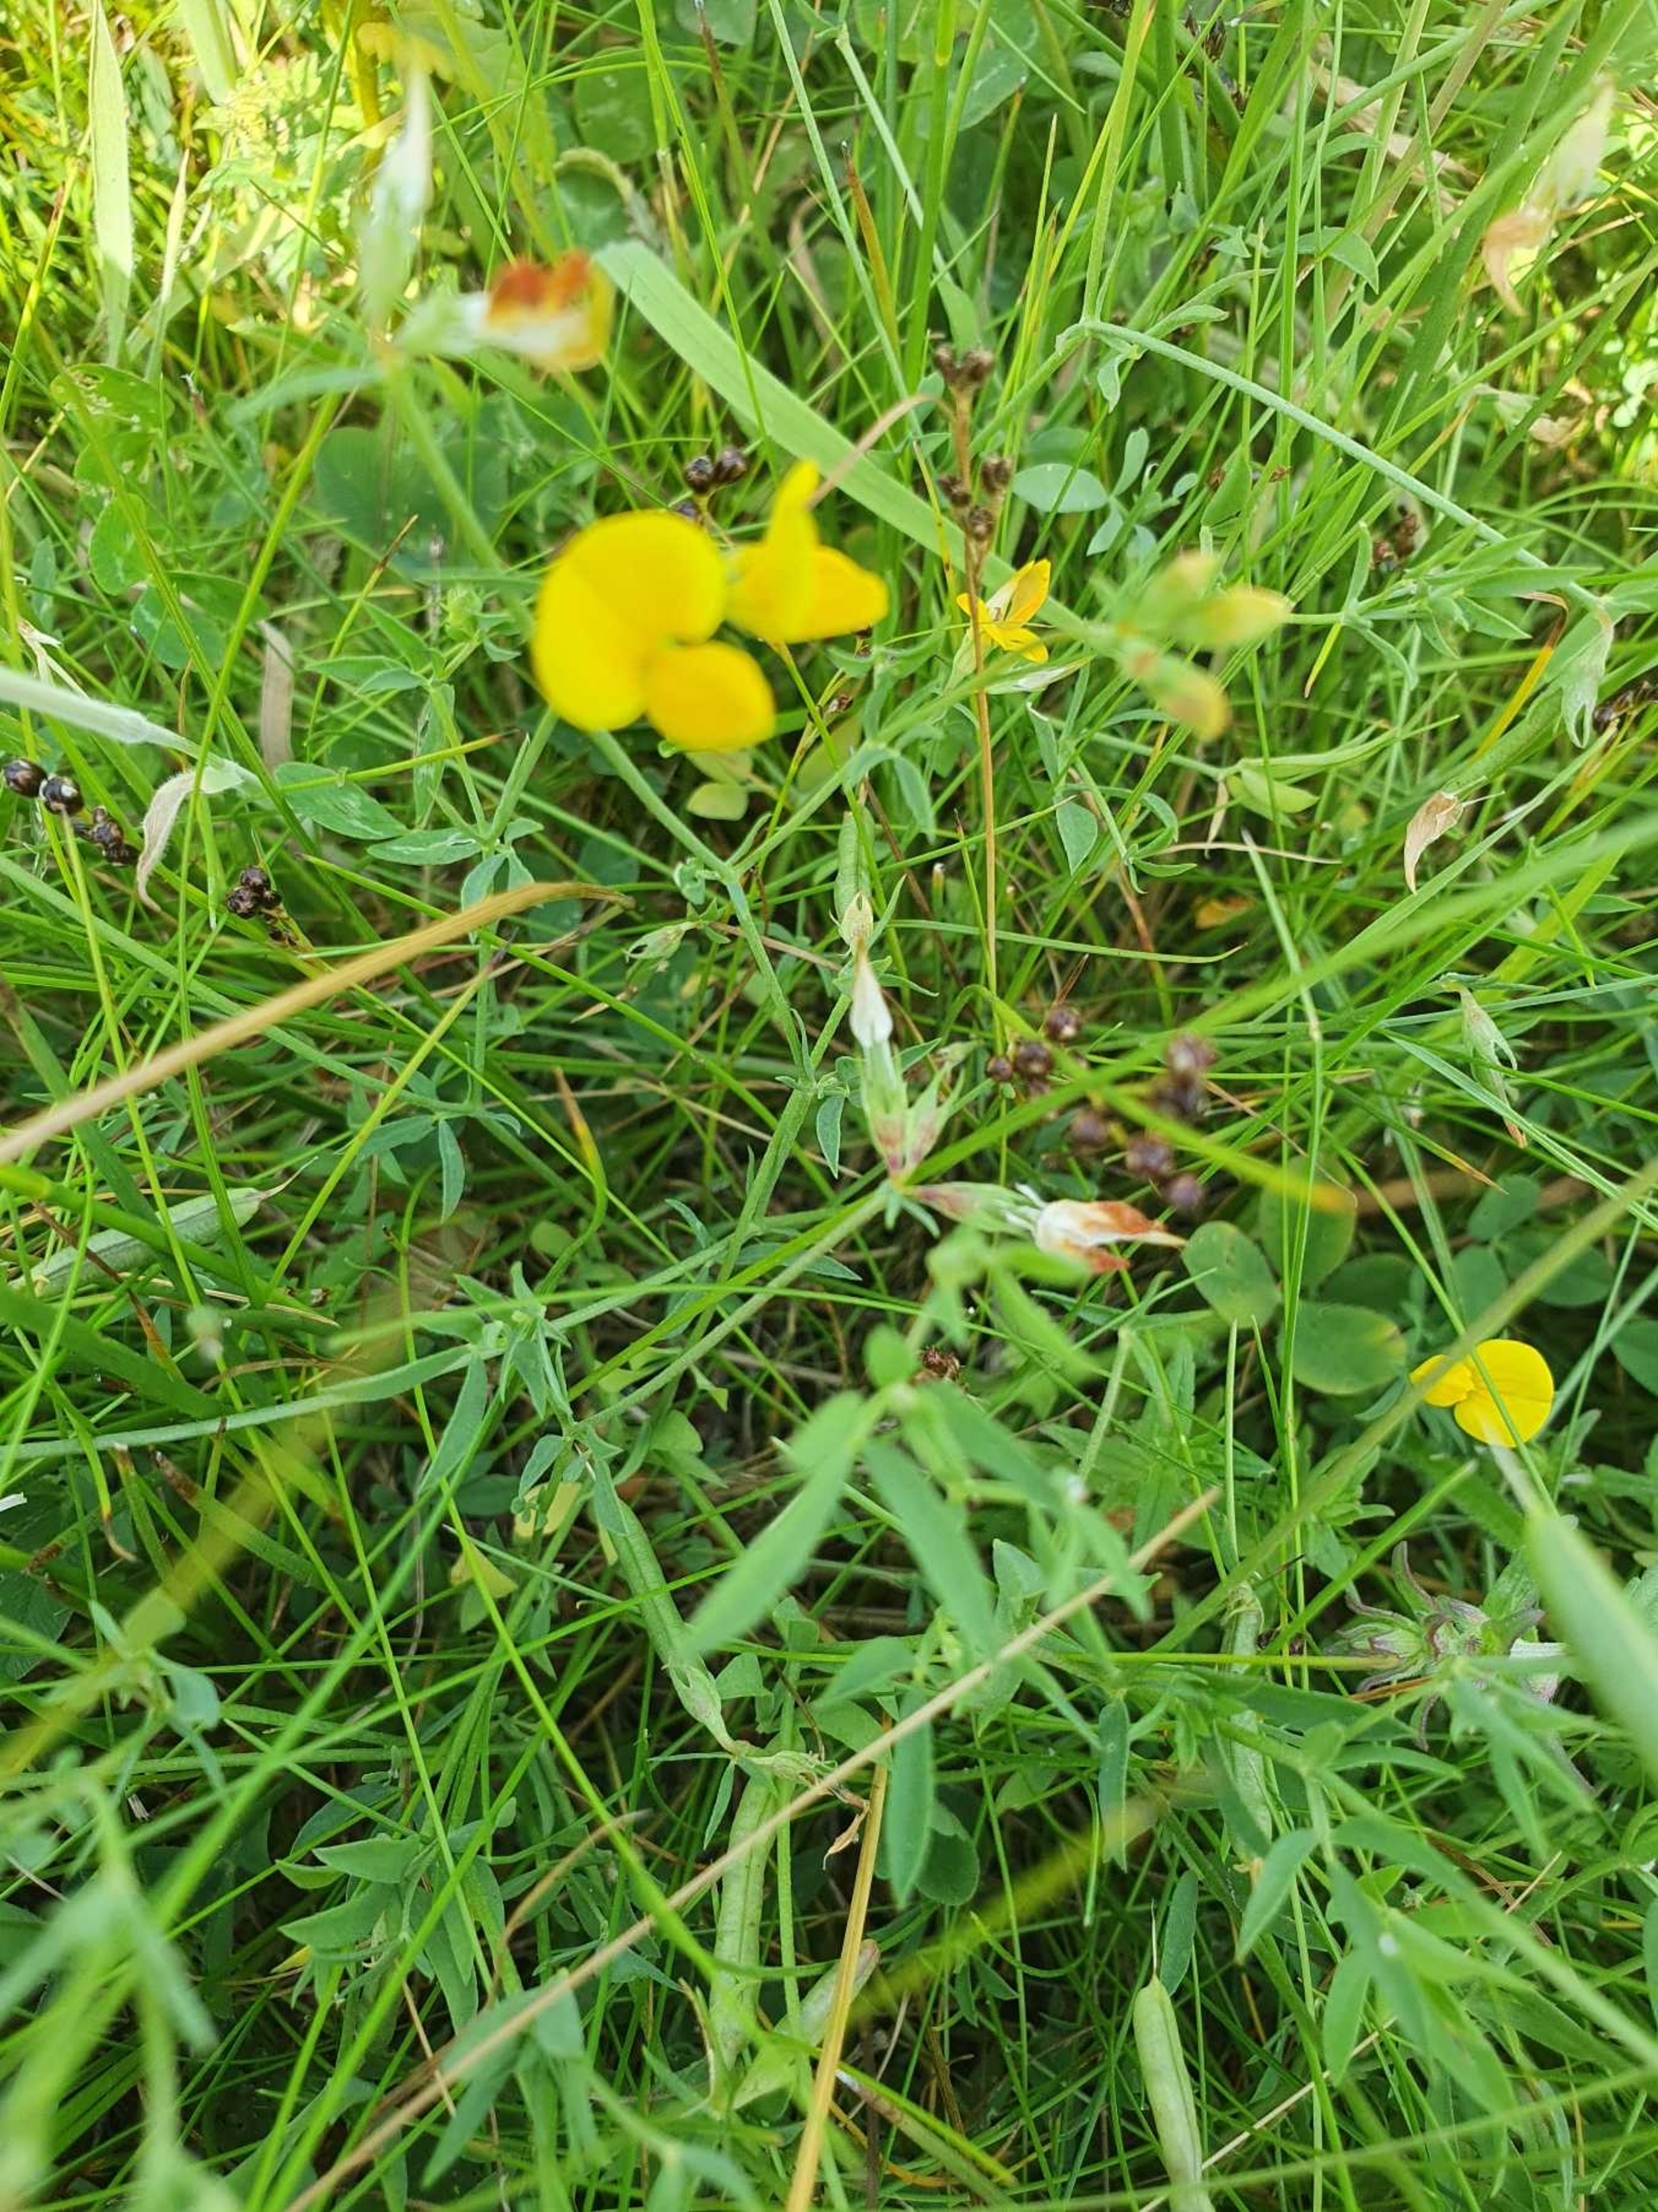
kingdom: Plantae
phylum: Tracheophyta
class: Magnoliopsida
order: Fabales
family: Fabaceae
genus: Lotus
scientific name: Lotus tenuis
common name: Smalbladet kællingetand
